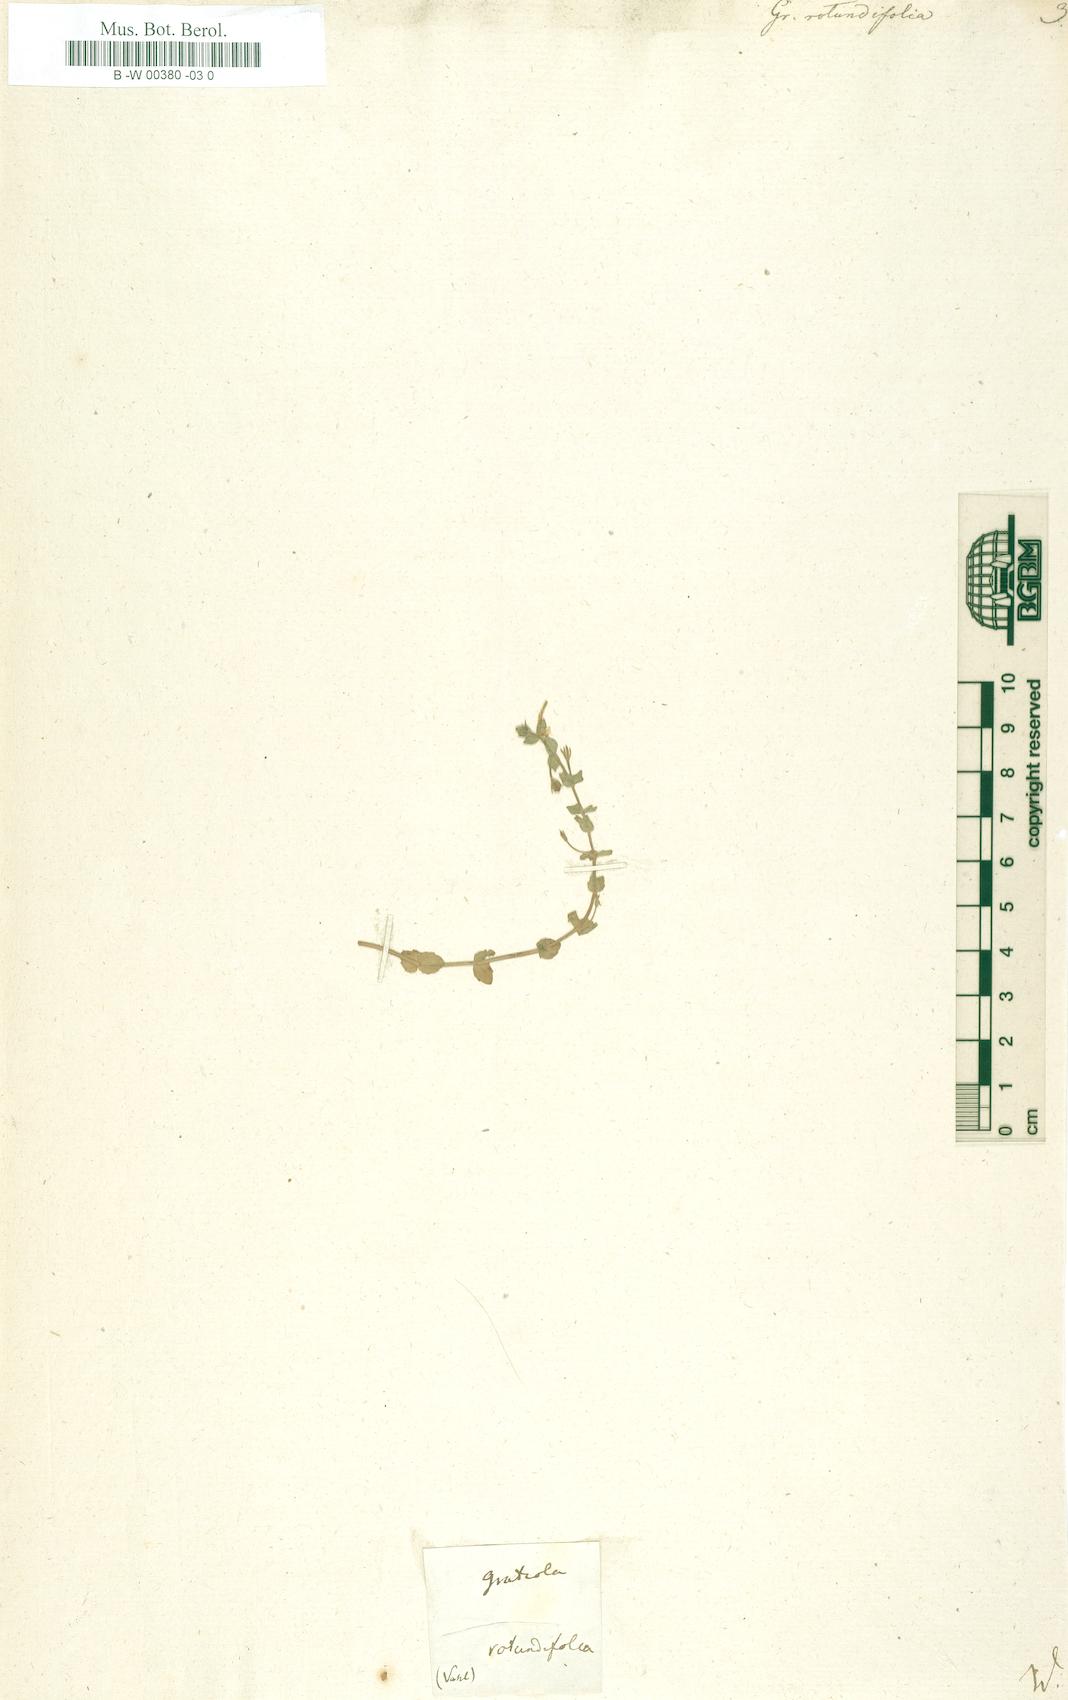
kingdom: Plantae
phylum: Tracheophyta
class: Magnoliopsida
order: Lamiales
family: Linderniaceae
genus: Lindernia
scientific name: Lindernia rotundifolia
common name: Baby’s tears
